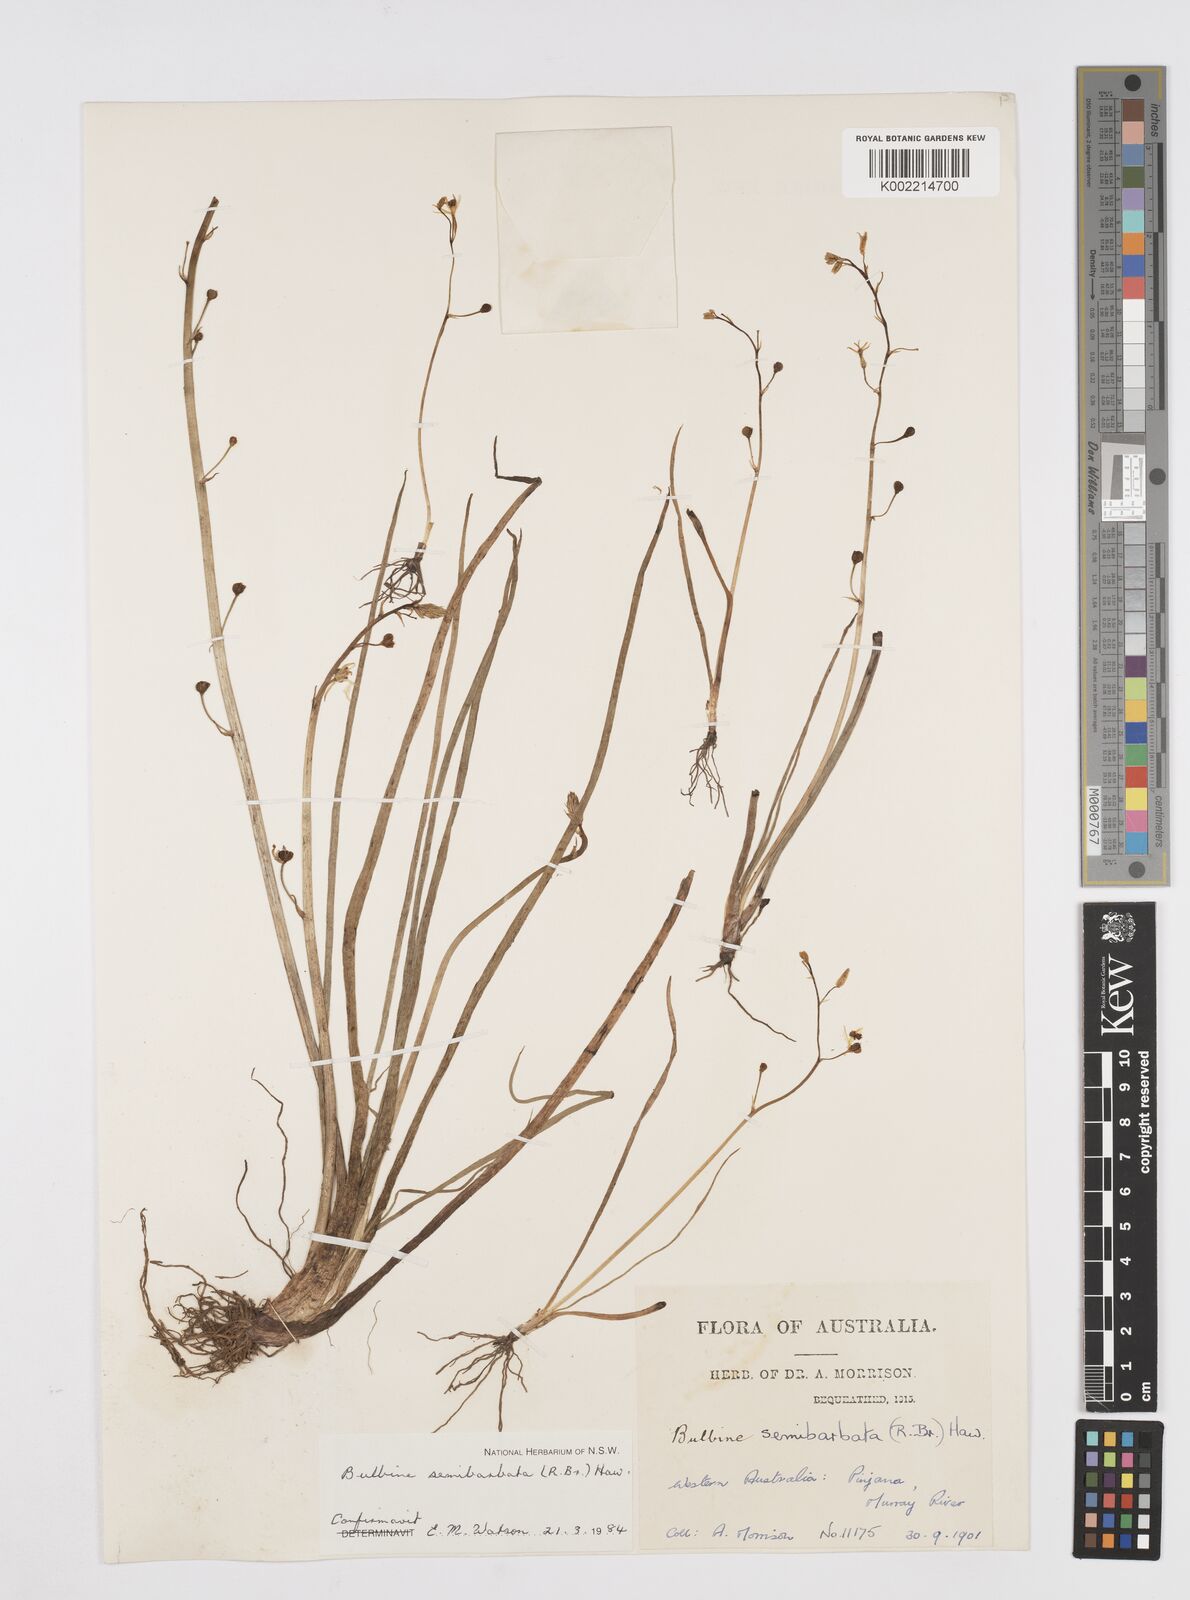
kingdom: Plantae
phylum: Tracheophyta
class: Liliopsida
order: Asparagales
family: Asphodelaceae
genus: Bulbine
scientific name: Bulbine semibarbata
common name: Leek lily
